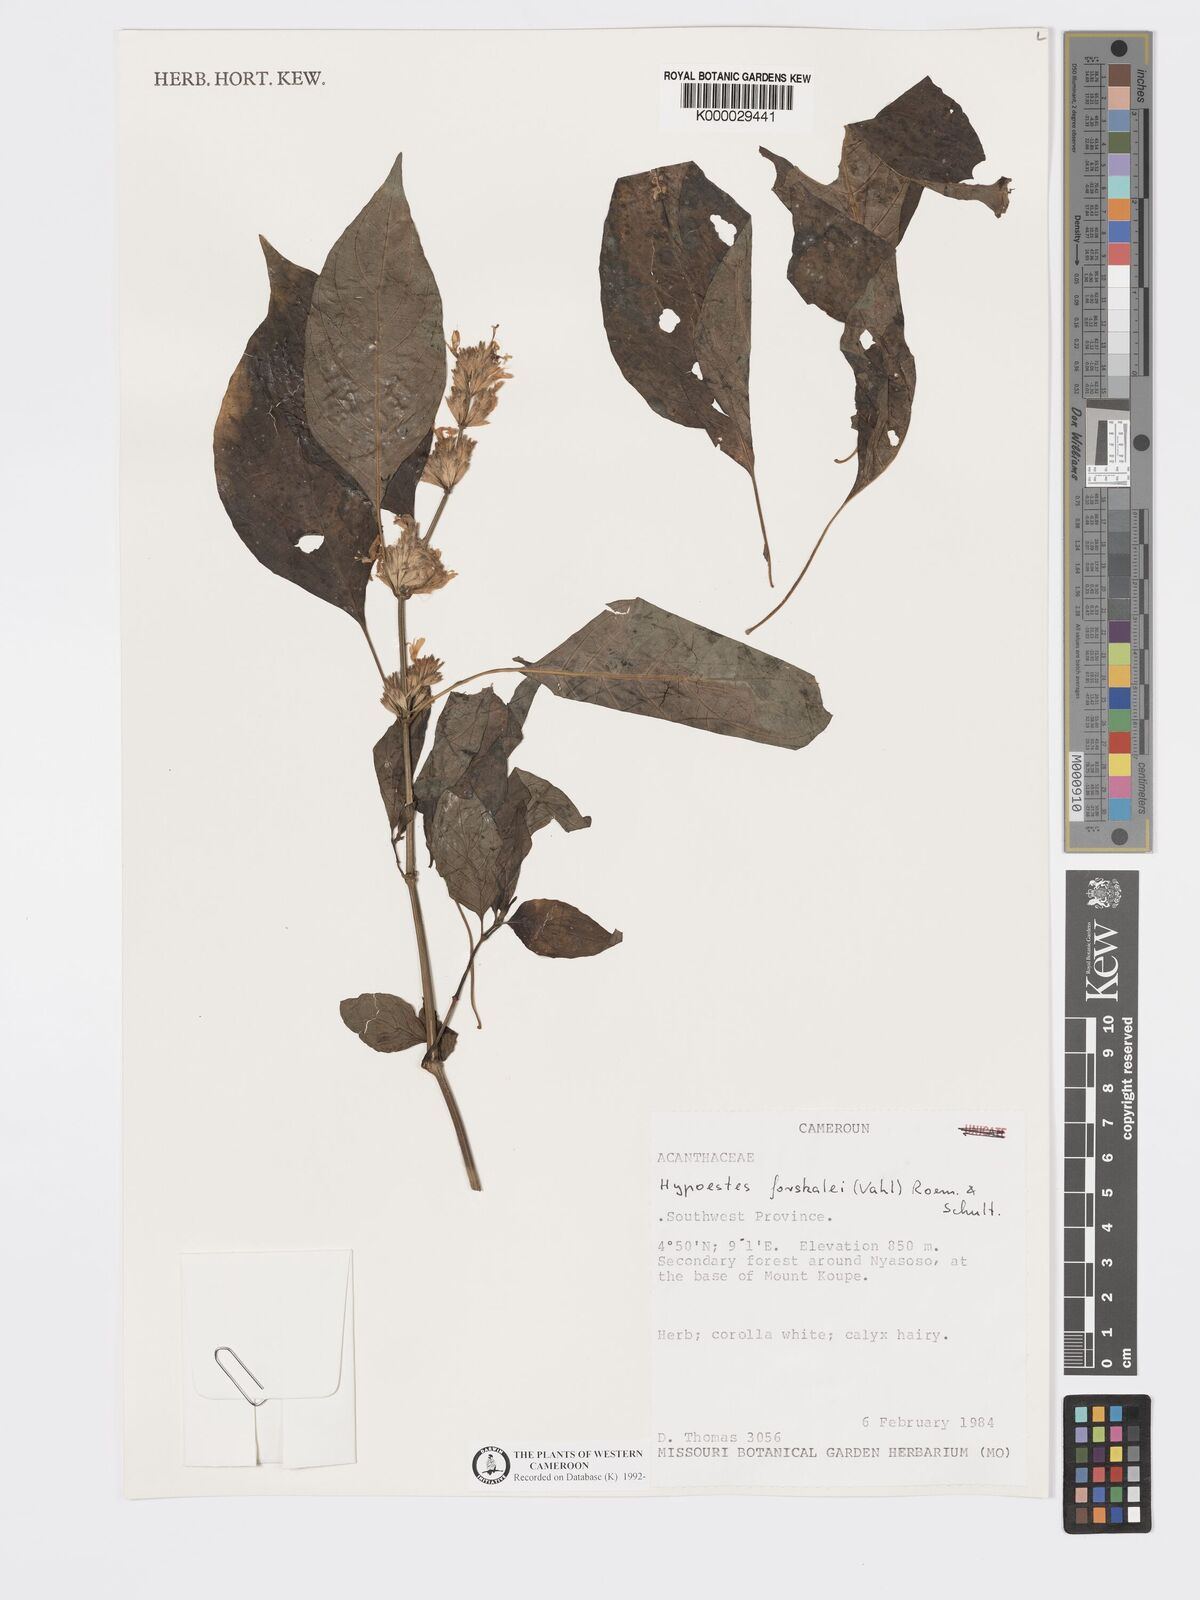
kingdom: Plantae
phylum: Tracheophyta
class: Magnoliopsida
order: Lamiales
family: Acanthaceae
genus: Hypoestes
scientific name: Hypoestes forskaolii
